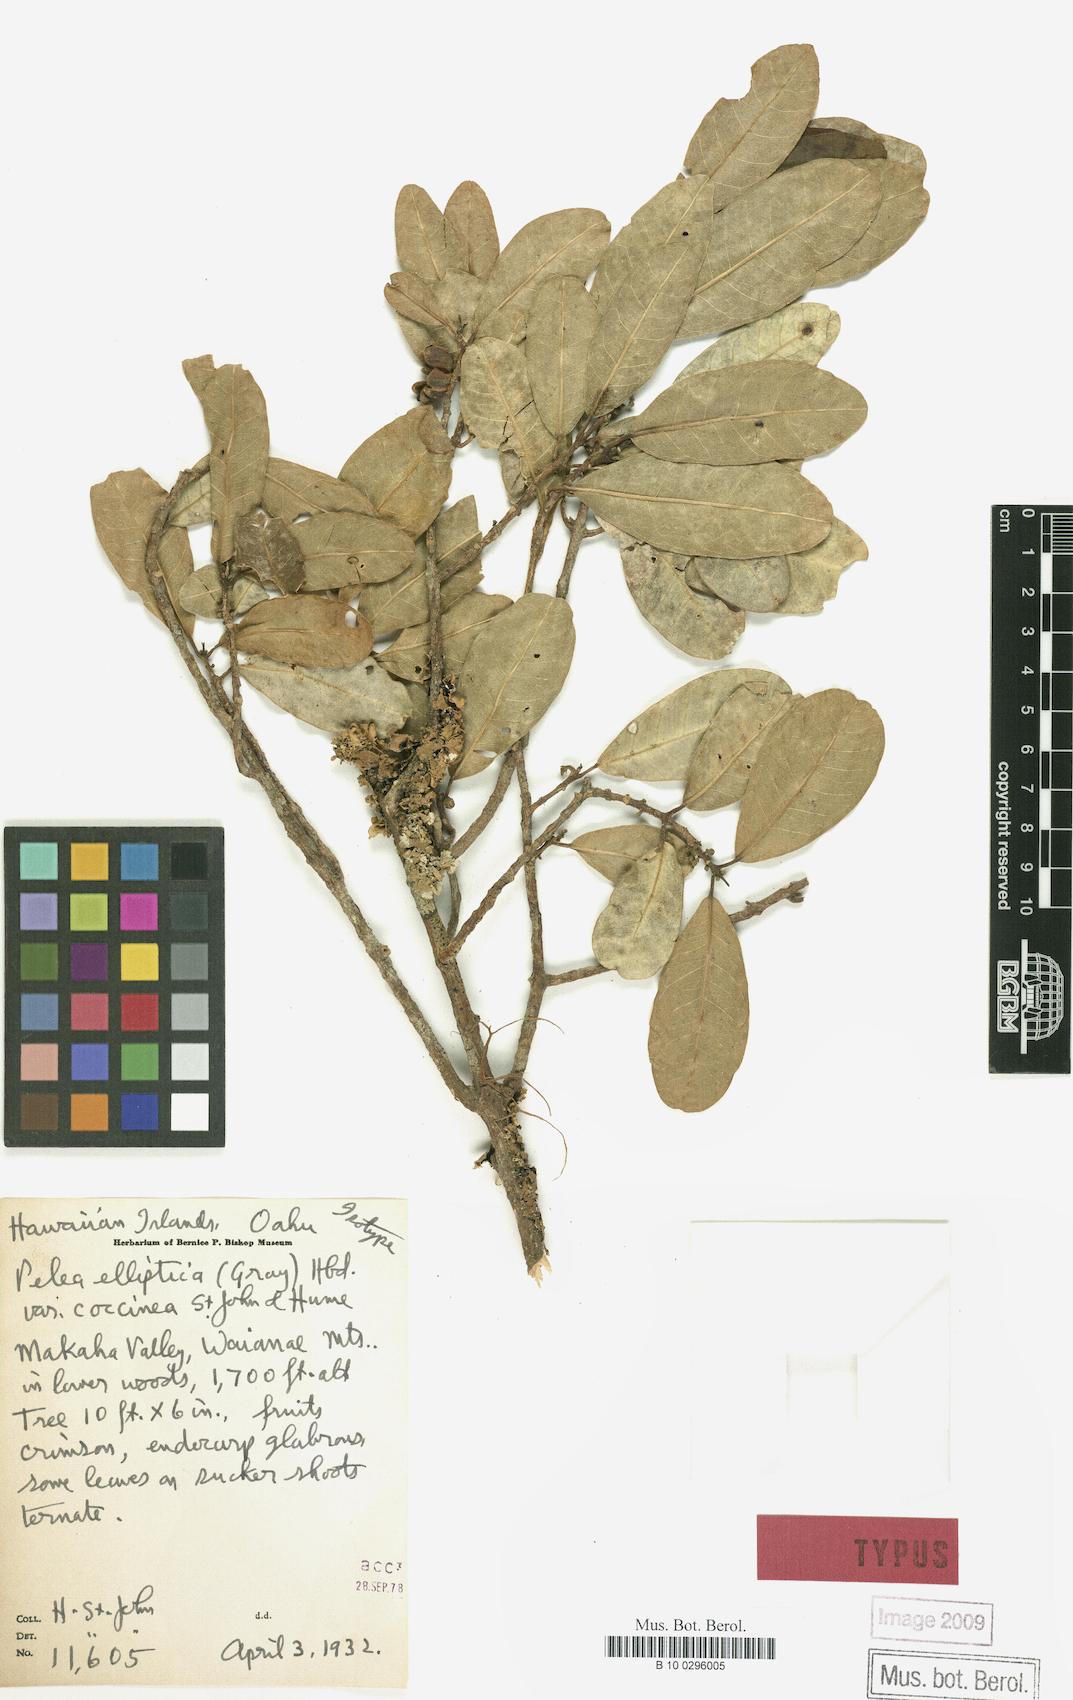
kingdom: Plantae
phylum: Tracheophyta
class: Magnoliopsida
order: Sapindales
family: Rutaceae
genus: Melicope
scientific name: Melicope elliptica
